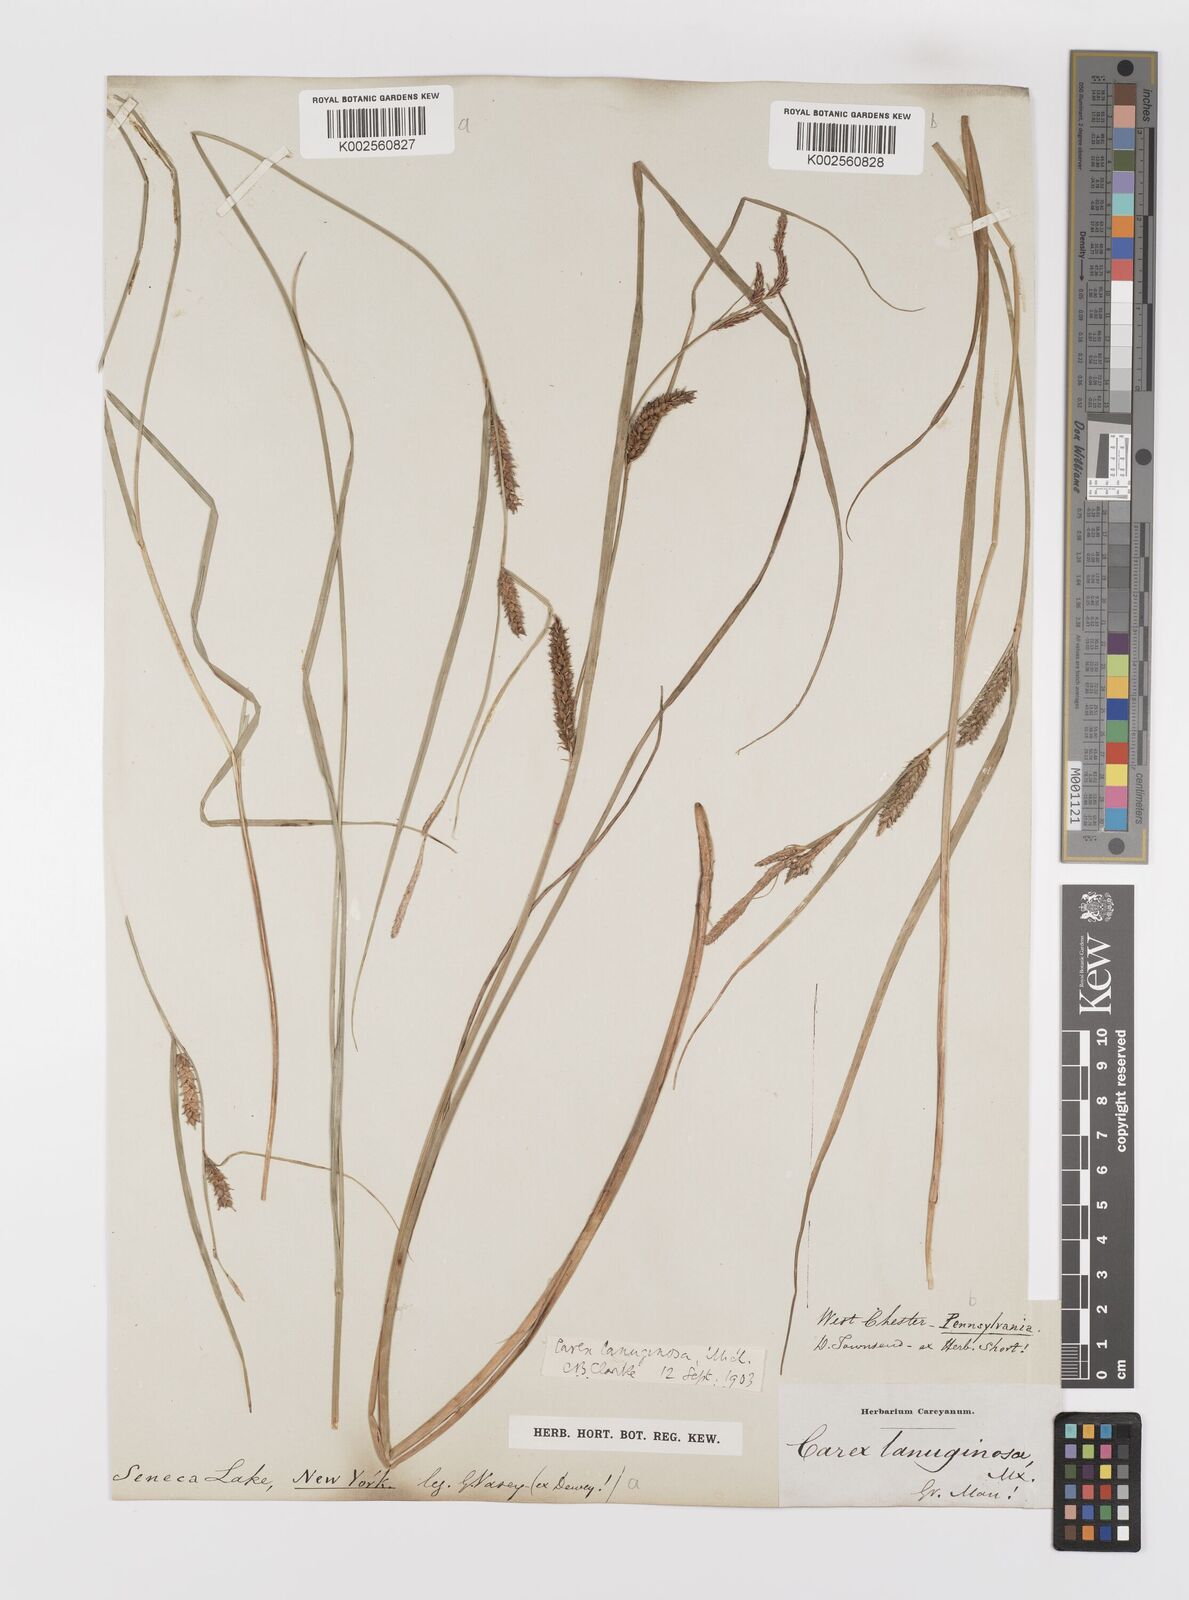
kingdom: Plantae
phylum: Tracheophyta
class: Liliopsida
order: Poales
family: Cyperaceae
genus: Carex
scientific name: Carex lasiocarpa
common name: Slender sedge
